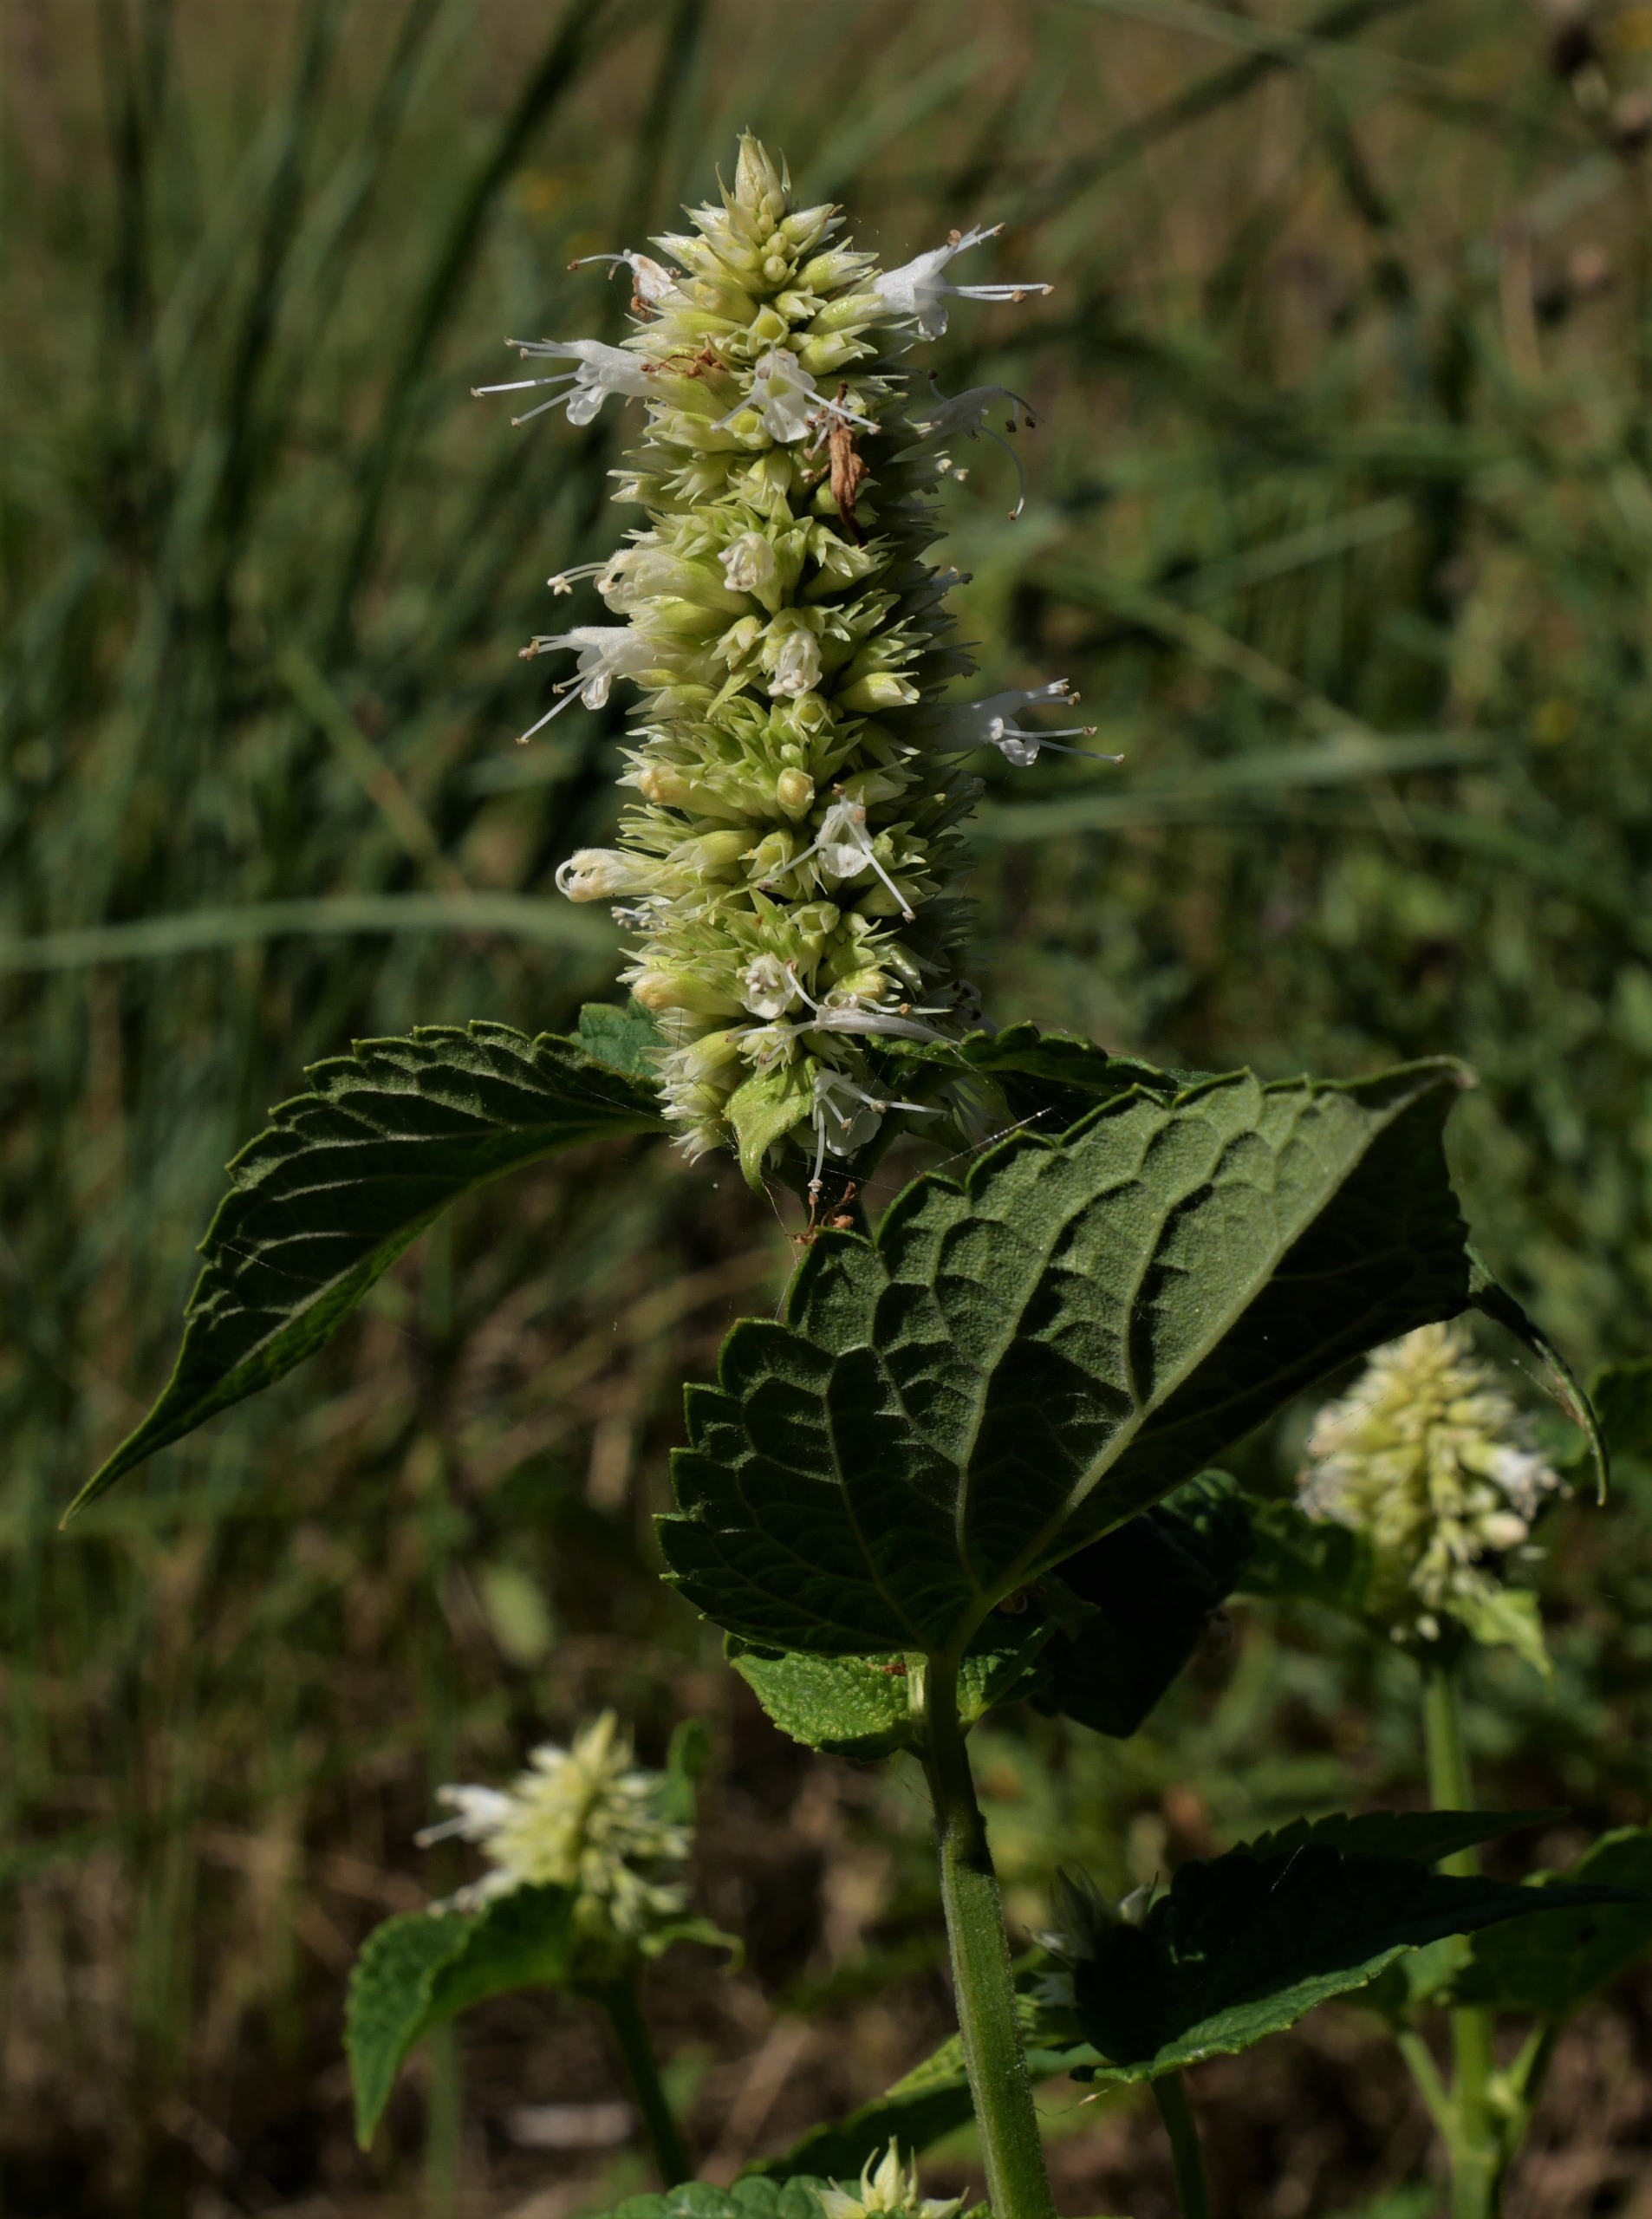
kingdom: Plantae
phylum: Tracheophyta
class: Magnoliopsida
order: Lamiales
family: Lamiaceae
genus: Agastache
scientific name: Agastache rugosa
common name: Koreansk anisisop
